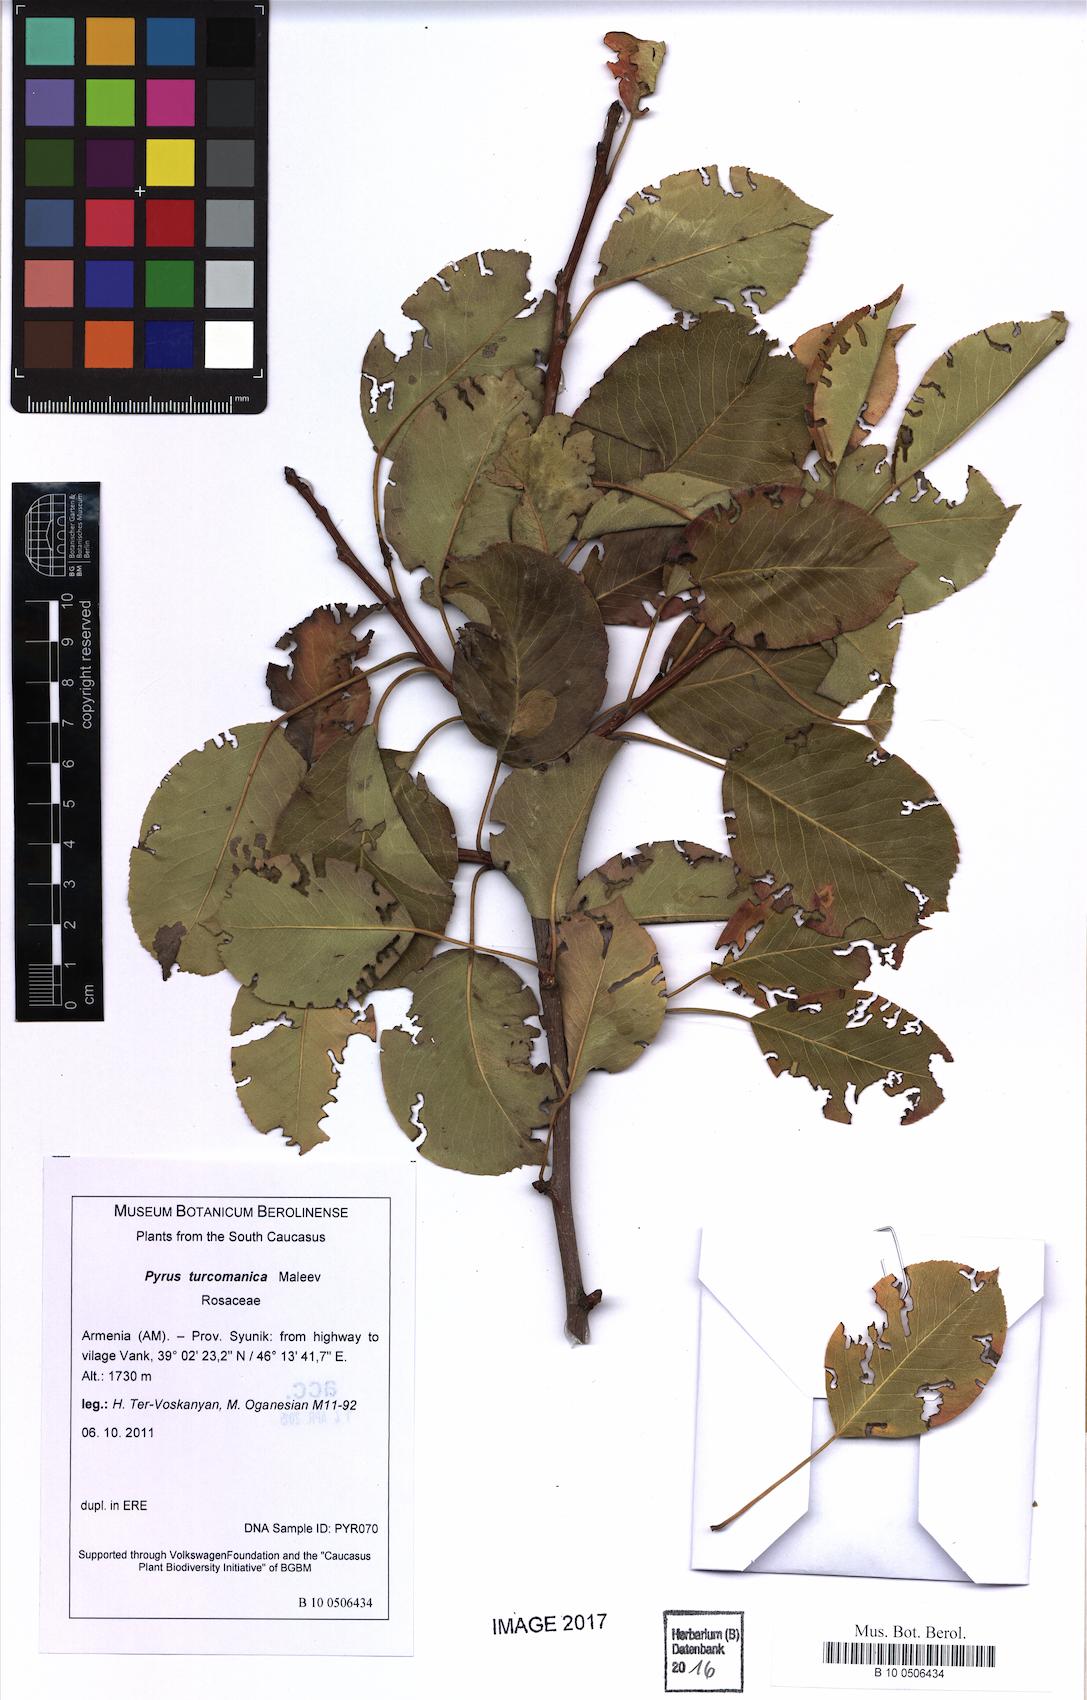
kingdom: Plantae
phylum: Tracheophyta
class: Magnoliopsida
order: Rosales
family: Rosaceae
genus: Pyrus
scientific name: Pyrus turcomanica
